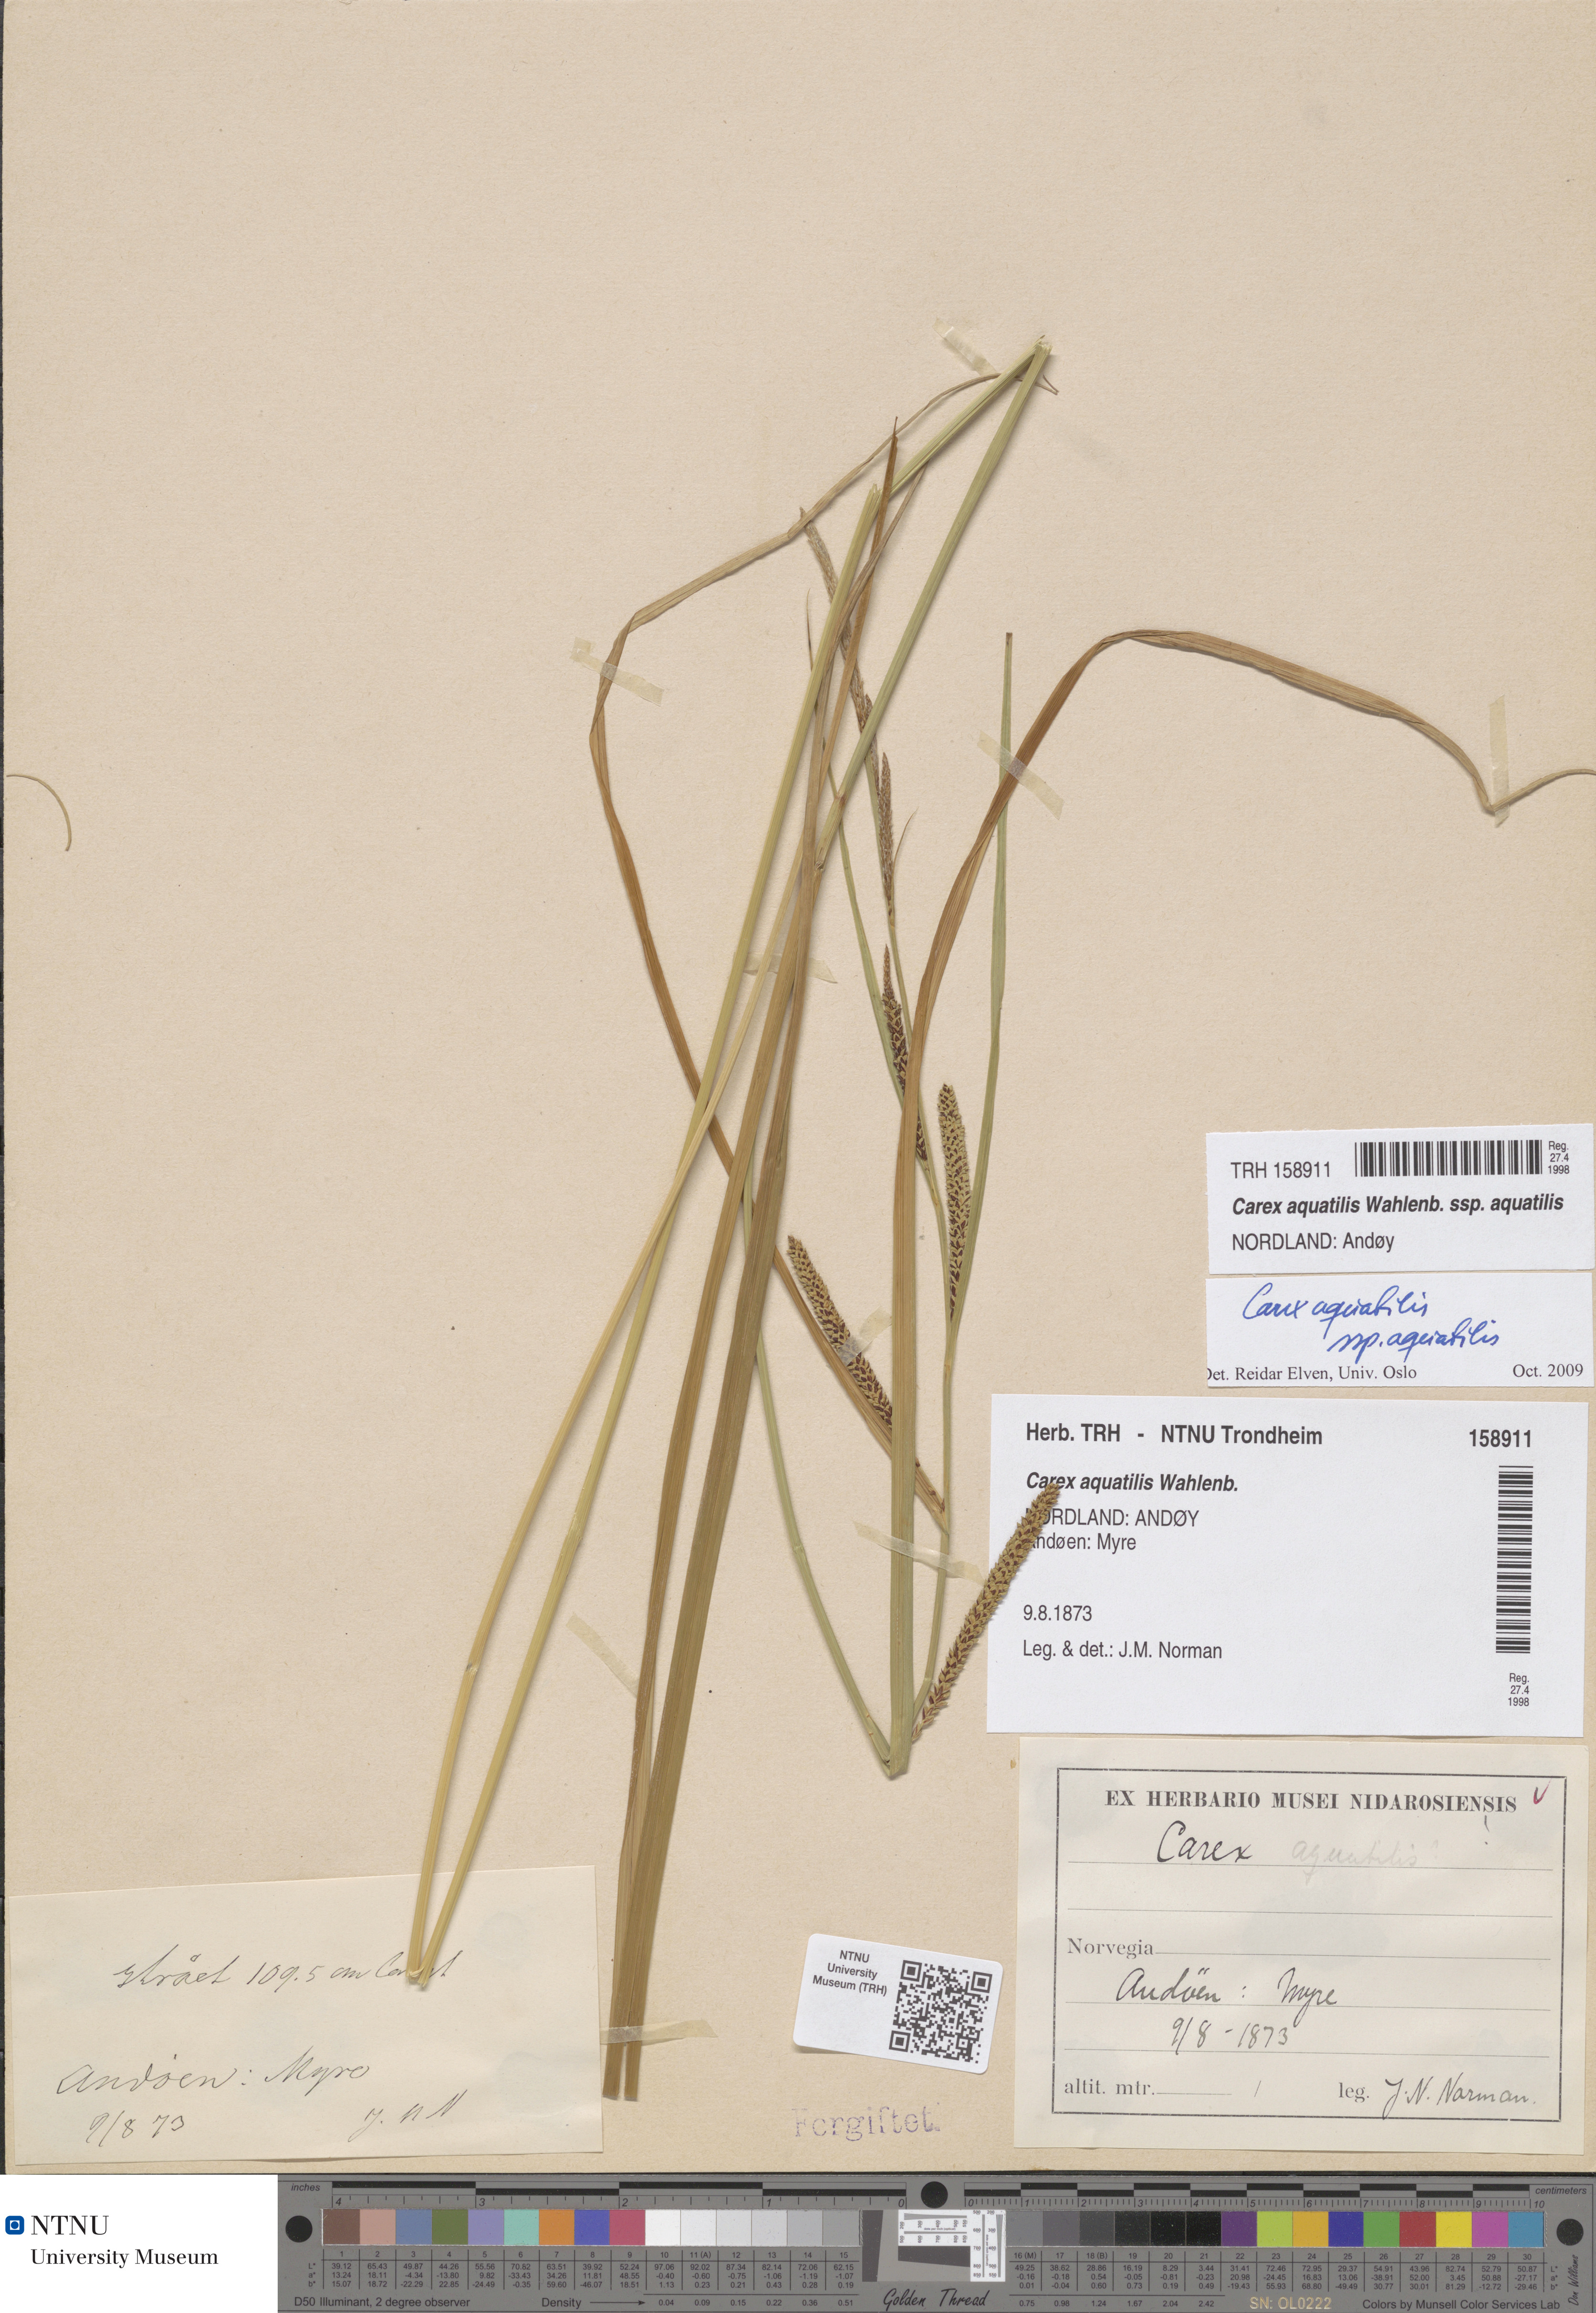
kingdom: Plantae
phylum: Tracheophyta
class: Liliopsida
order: Poales
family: Cyperaceae
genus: Carex
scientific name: Carex aquatilis
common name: Water sedge
